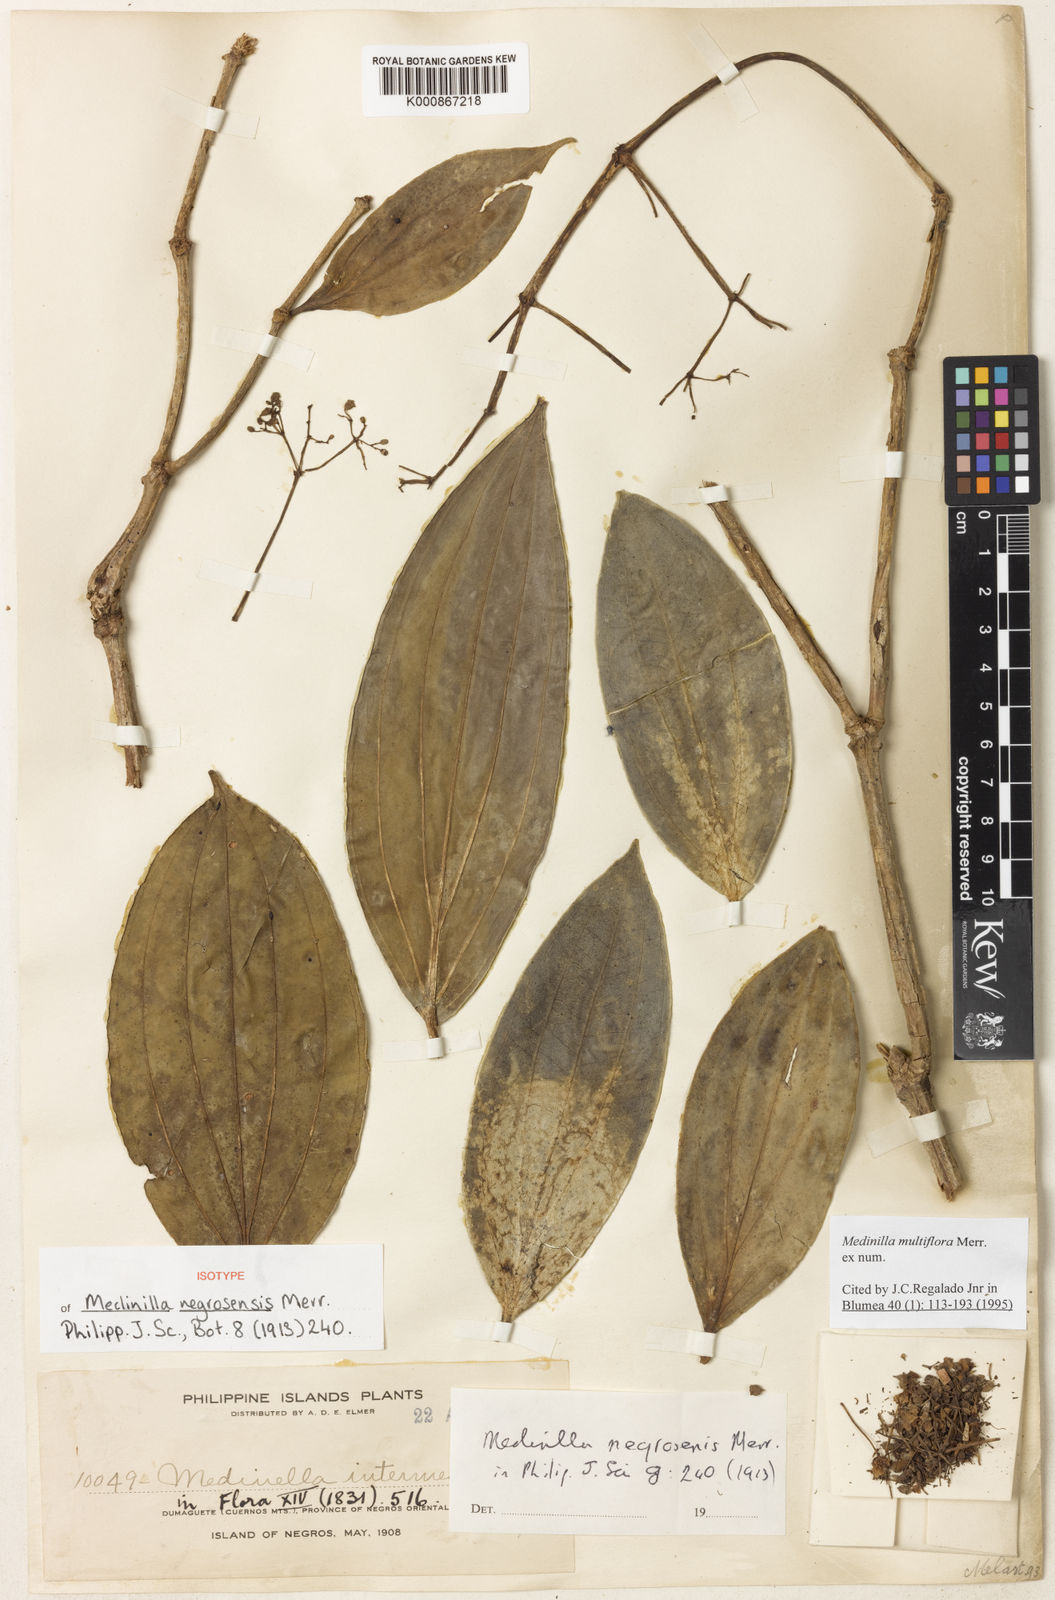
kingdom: Plantae
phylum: Tracheophyta
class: Magnoliopsida
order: Myrtales
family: Melastomataceae
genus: Medinilla
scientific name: Medinilla multiflora
